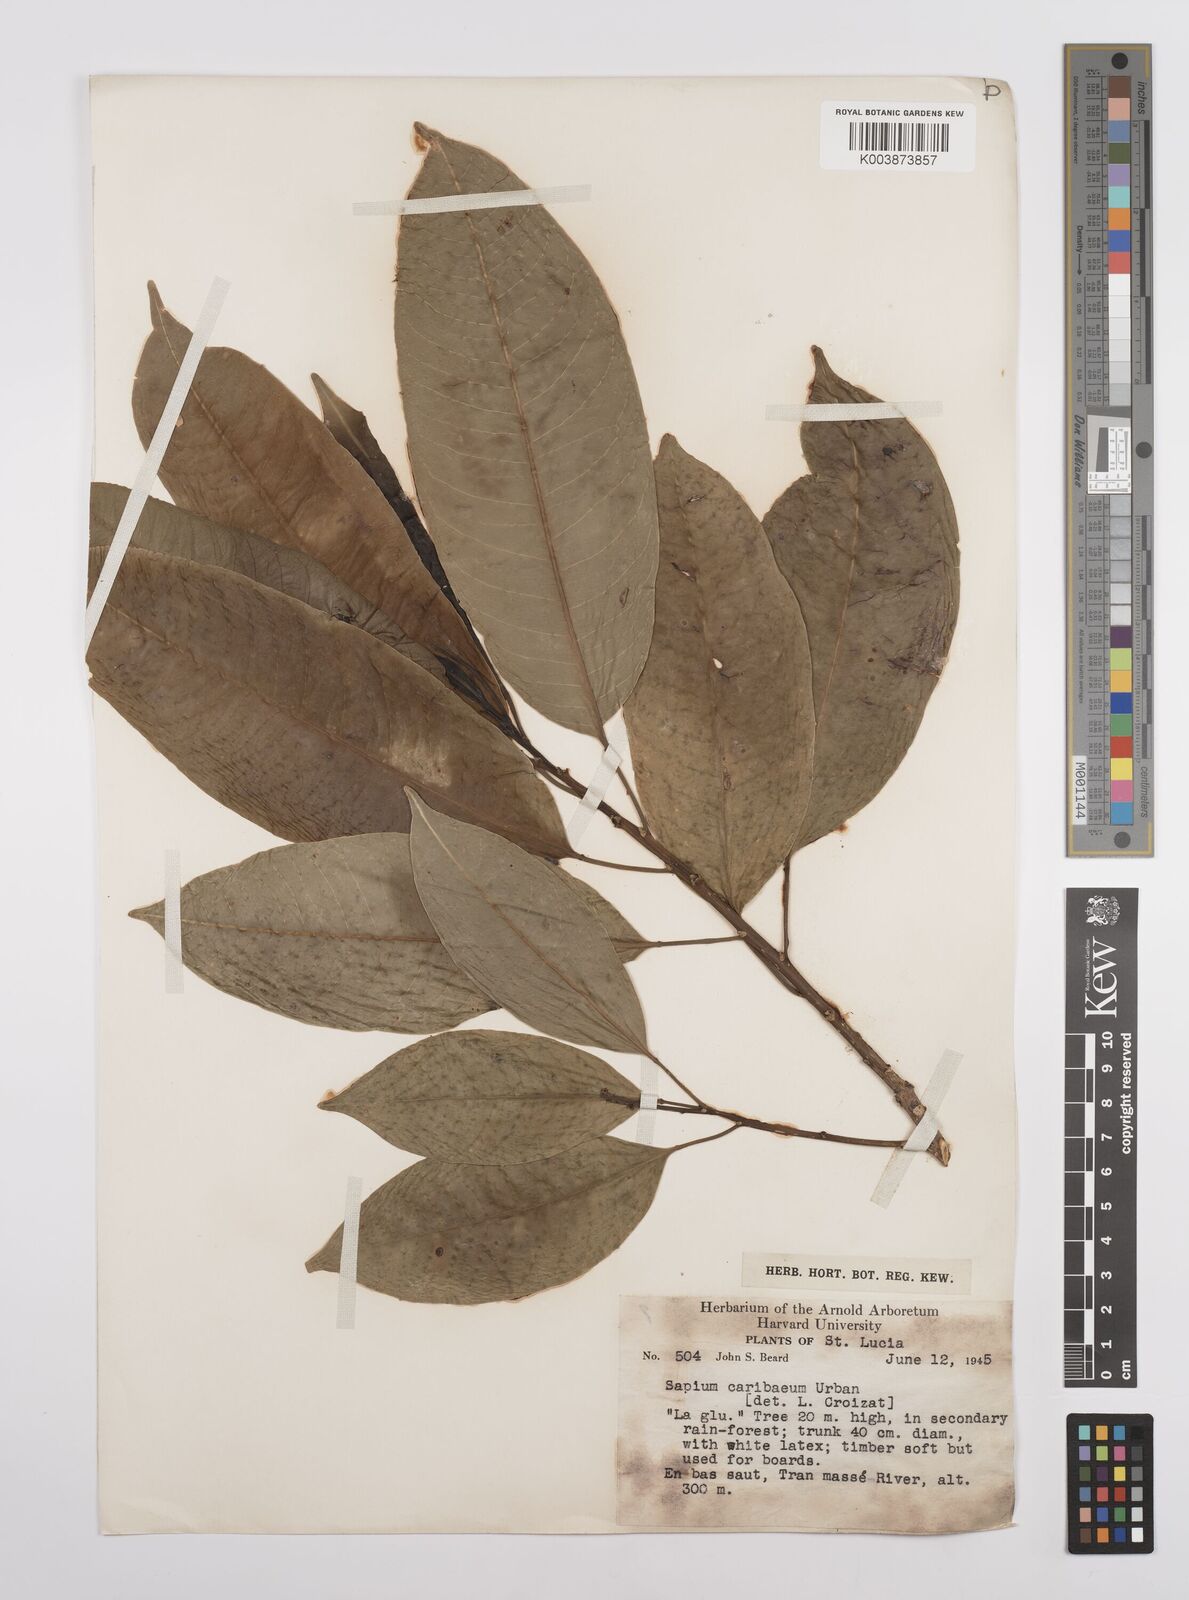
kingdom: Plantae
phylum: Tracheophyta
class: Magnoliopsida
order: Malpighiales
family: Euphorbiaceae
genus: Sapium
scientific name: Sapium glandulosum
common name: Milktree
